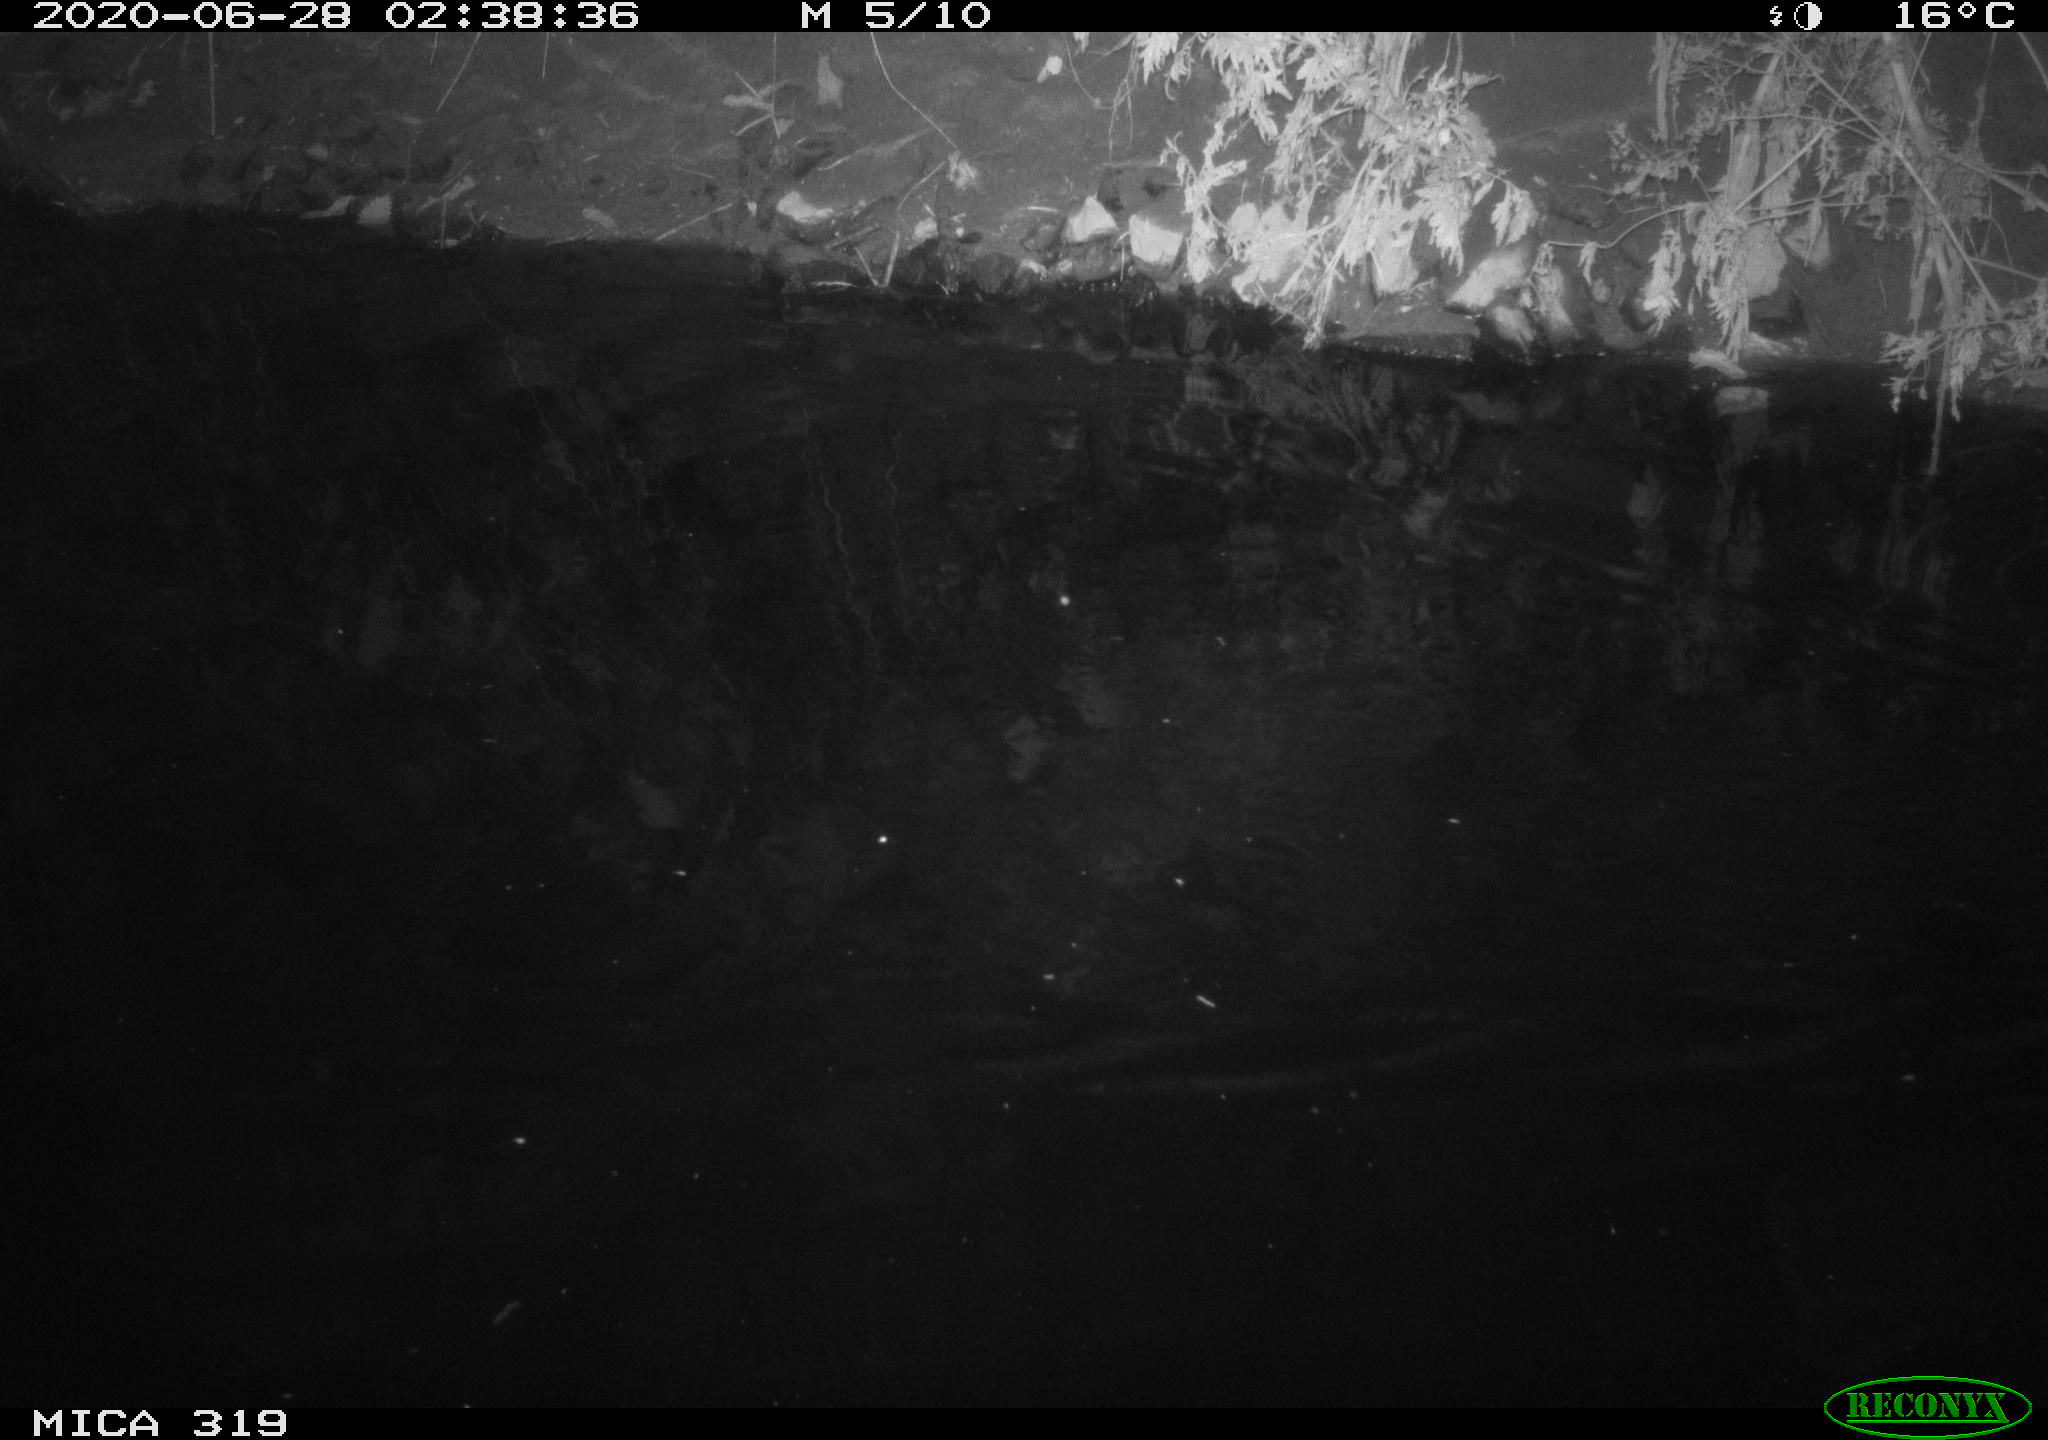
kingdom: Animalia
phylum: Chordata
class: Aves
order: Anseriformes
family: Anatidae
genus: Anas
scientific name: Anas platyrhynchos
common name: Mallard
